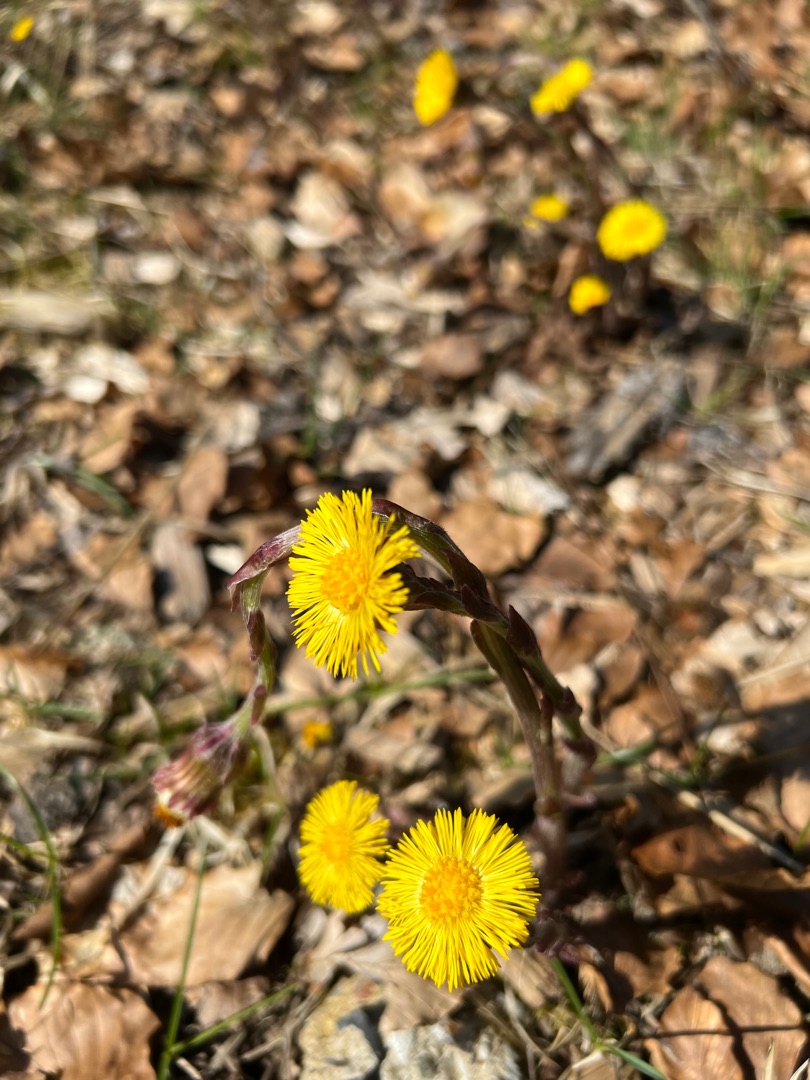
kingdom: Plantae
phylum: Tracheophyta
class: Magnoliopsida
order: Asterales
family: Asteraceae
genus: Tussilago
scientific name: Tussilago farfara
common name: Følfod
